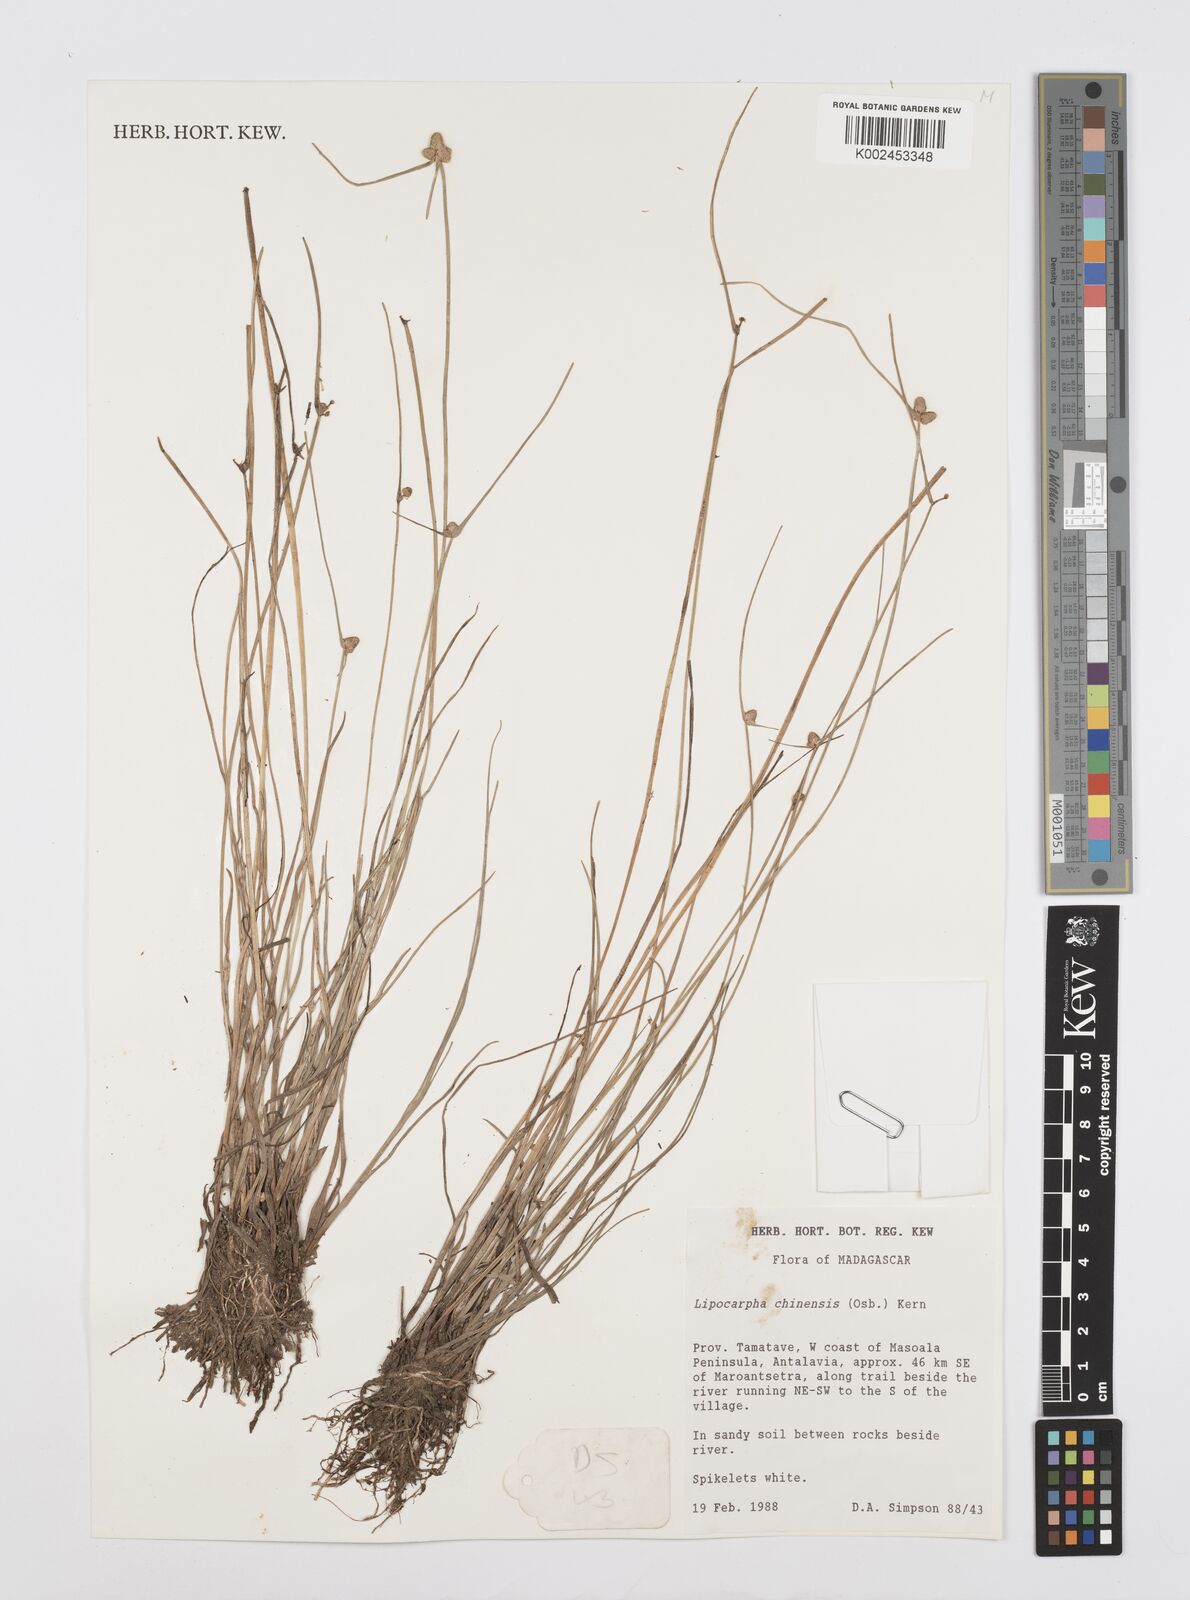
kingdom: Plantae
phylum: Tracheophyta
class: Liliopsida
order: Poales
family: Cyperaceae
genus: Cyperus
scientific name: Cyperus
